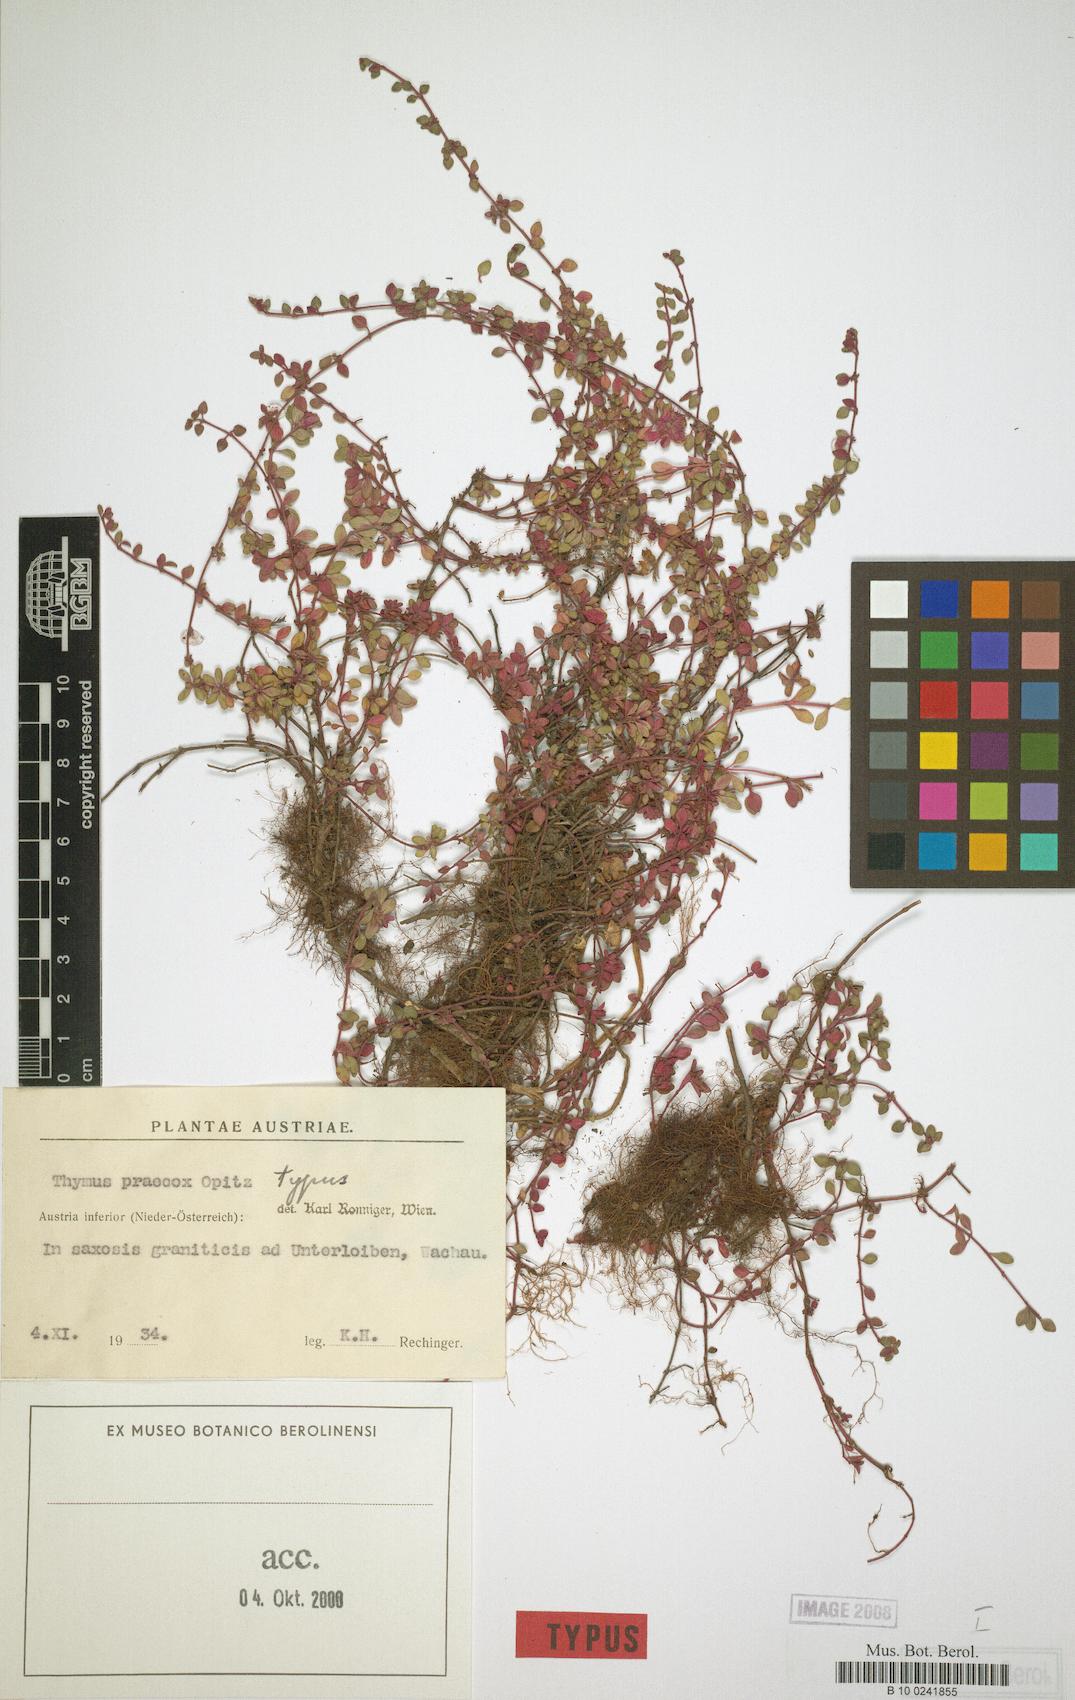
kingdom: Plantae
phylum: Tracheophyta
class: Magnoliopsida
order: Lamiales
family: Lamiaceae
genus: Thymus
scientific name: Thymus praecox
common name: Wild thyme
